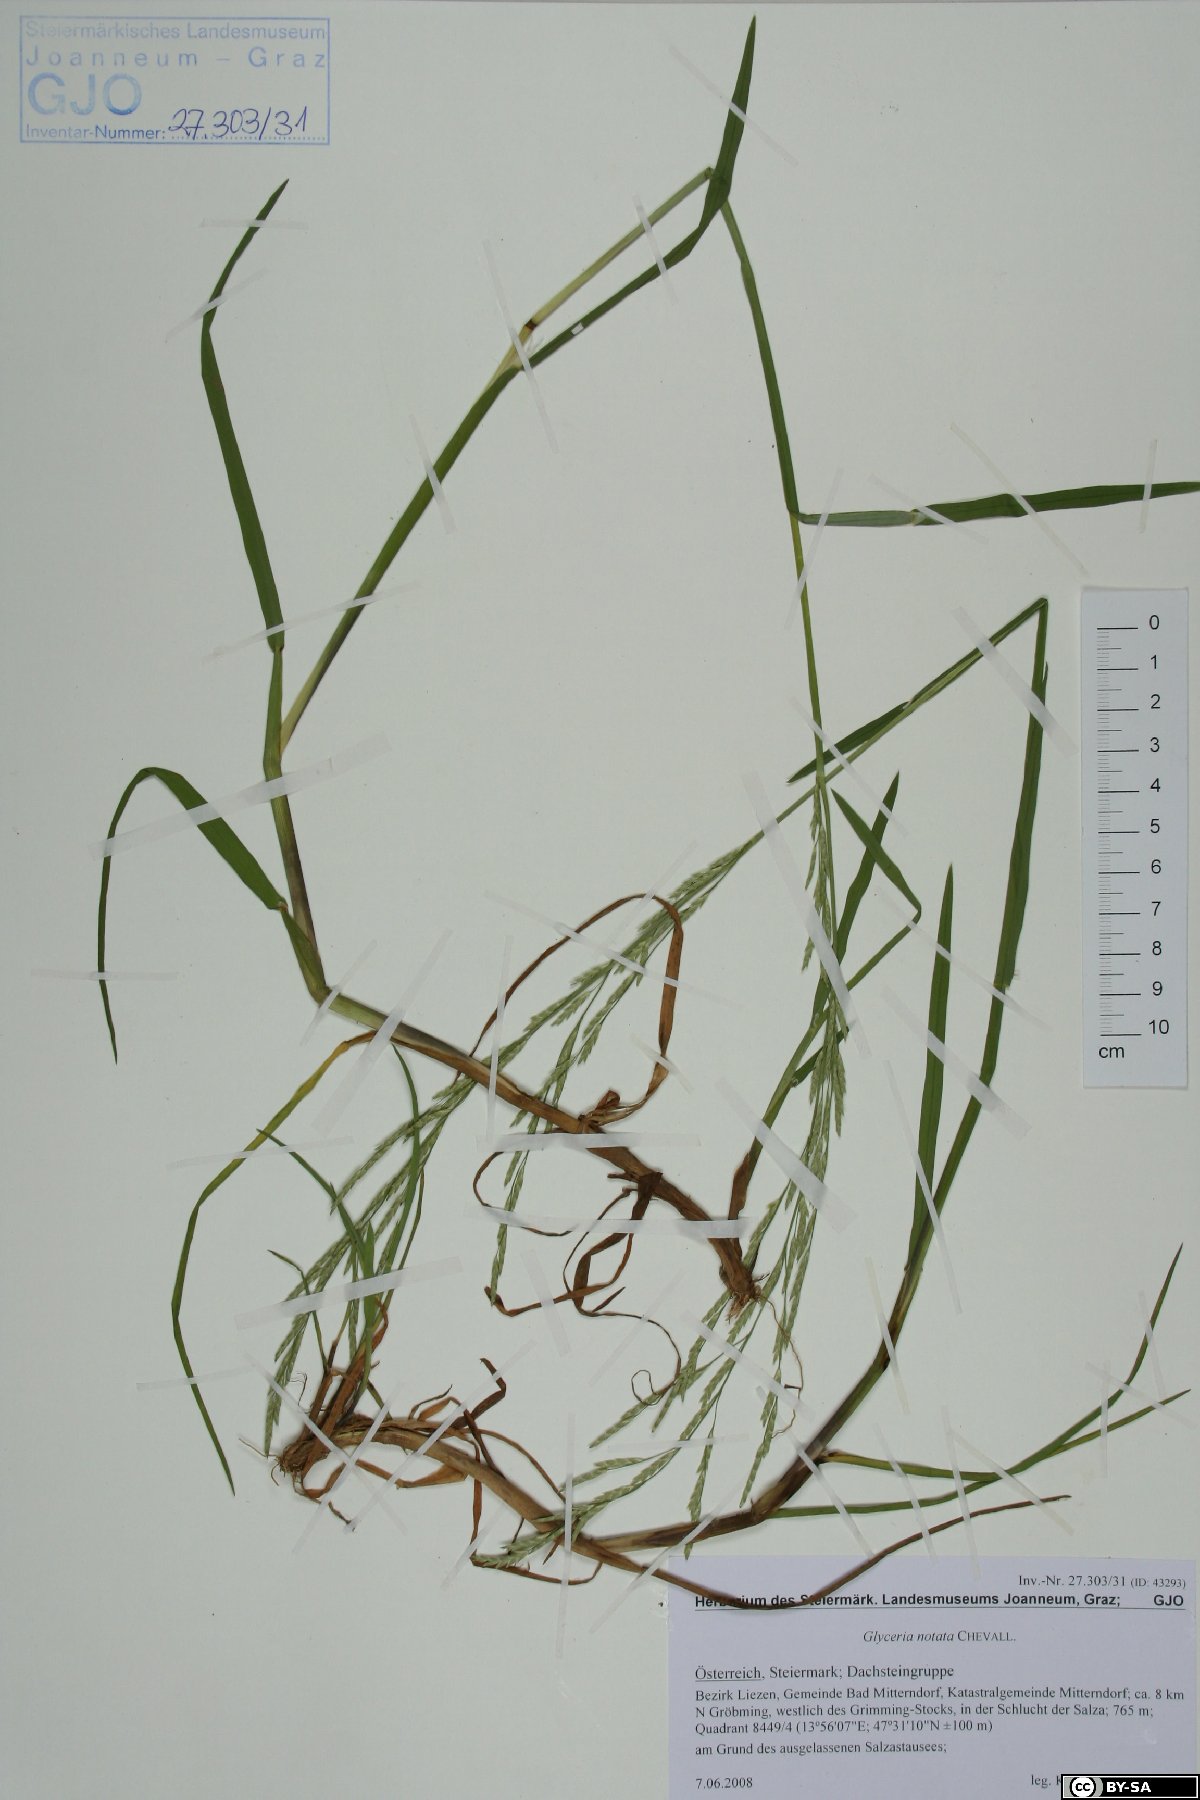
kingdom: Plantae
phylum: Tracheophyta
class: Liliopsida
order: Poales
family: Poaceae
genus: Glyceria
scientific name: Glyceria notata
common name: Plicate sweet-grass
